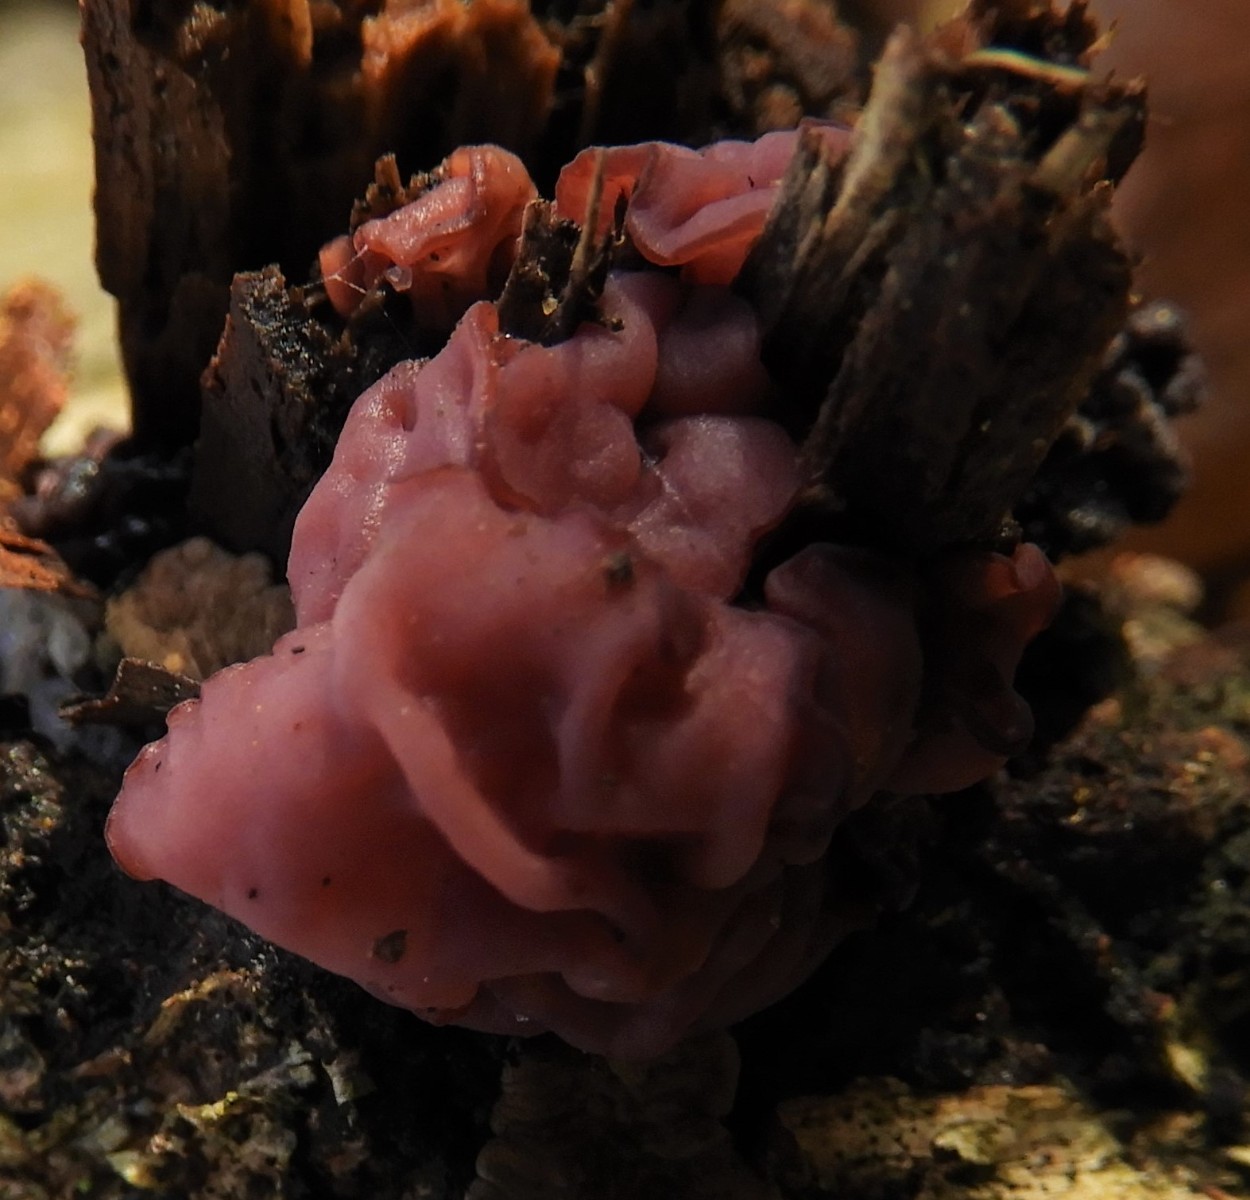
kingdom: Fungi
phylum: Ascomycota
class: Leotiomycetes
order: Helotiales
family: Gelatinodiscaceae
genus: Ascocoryne
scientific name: Ascocoryne
